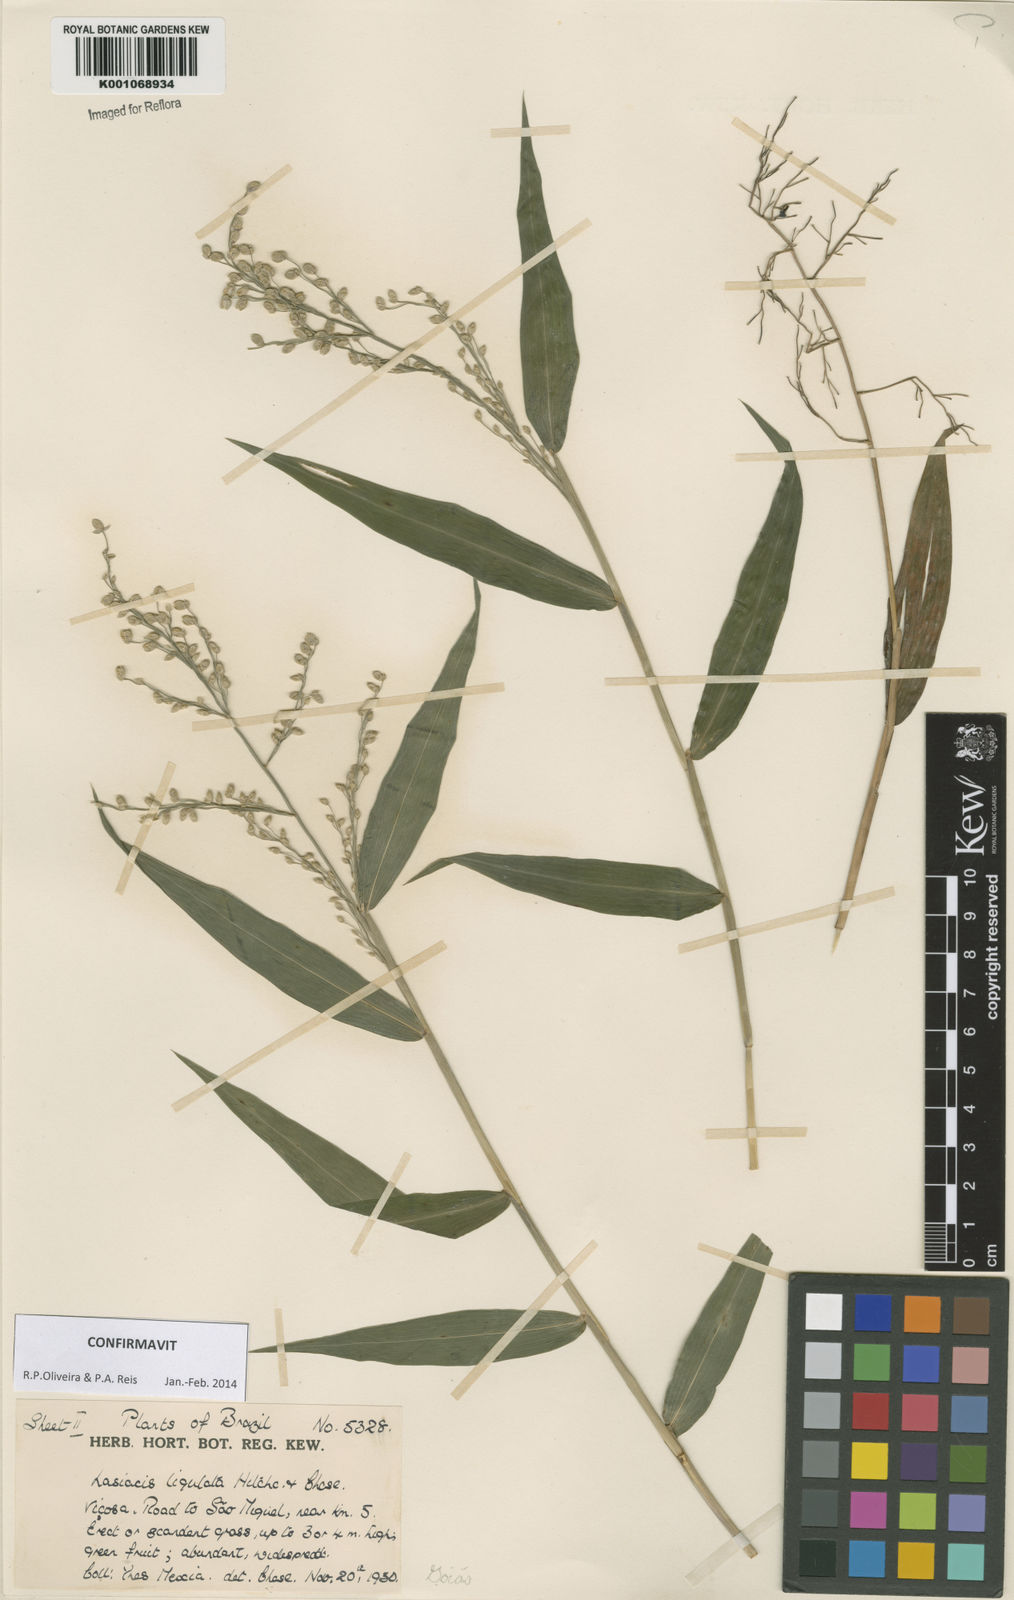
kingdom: Plantae
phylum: Tracheophyta
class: Liliopsida
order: Poales
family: Poaceae
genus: Lasiacis
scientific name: Lasiacis ligulata
